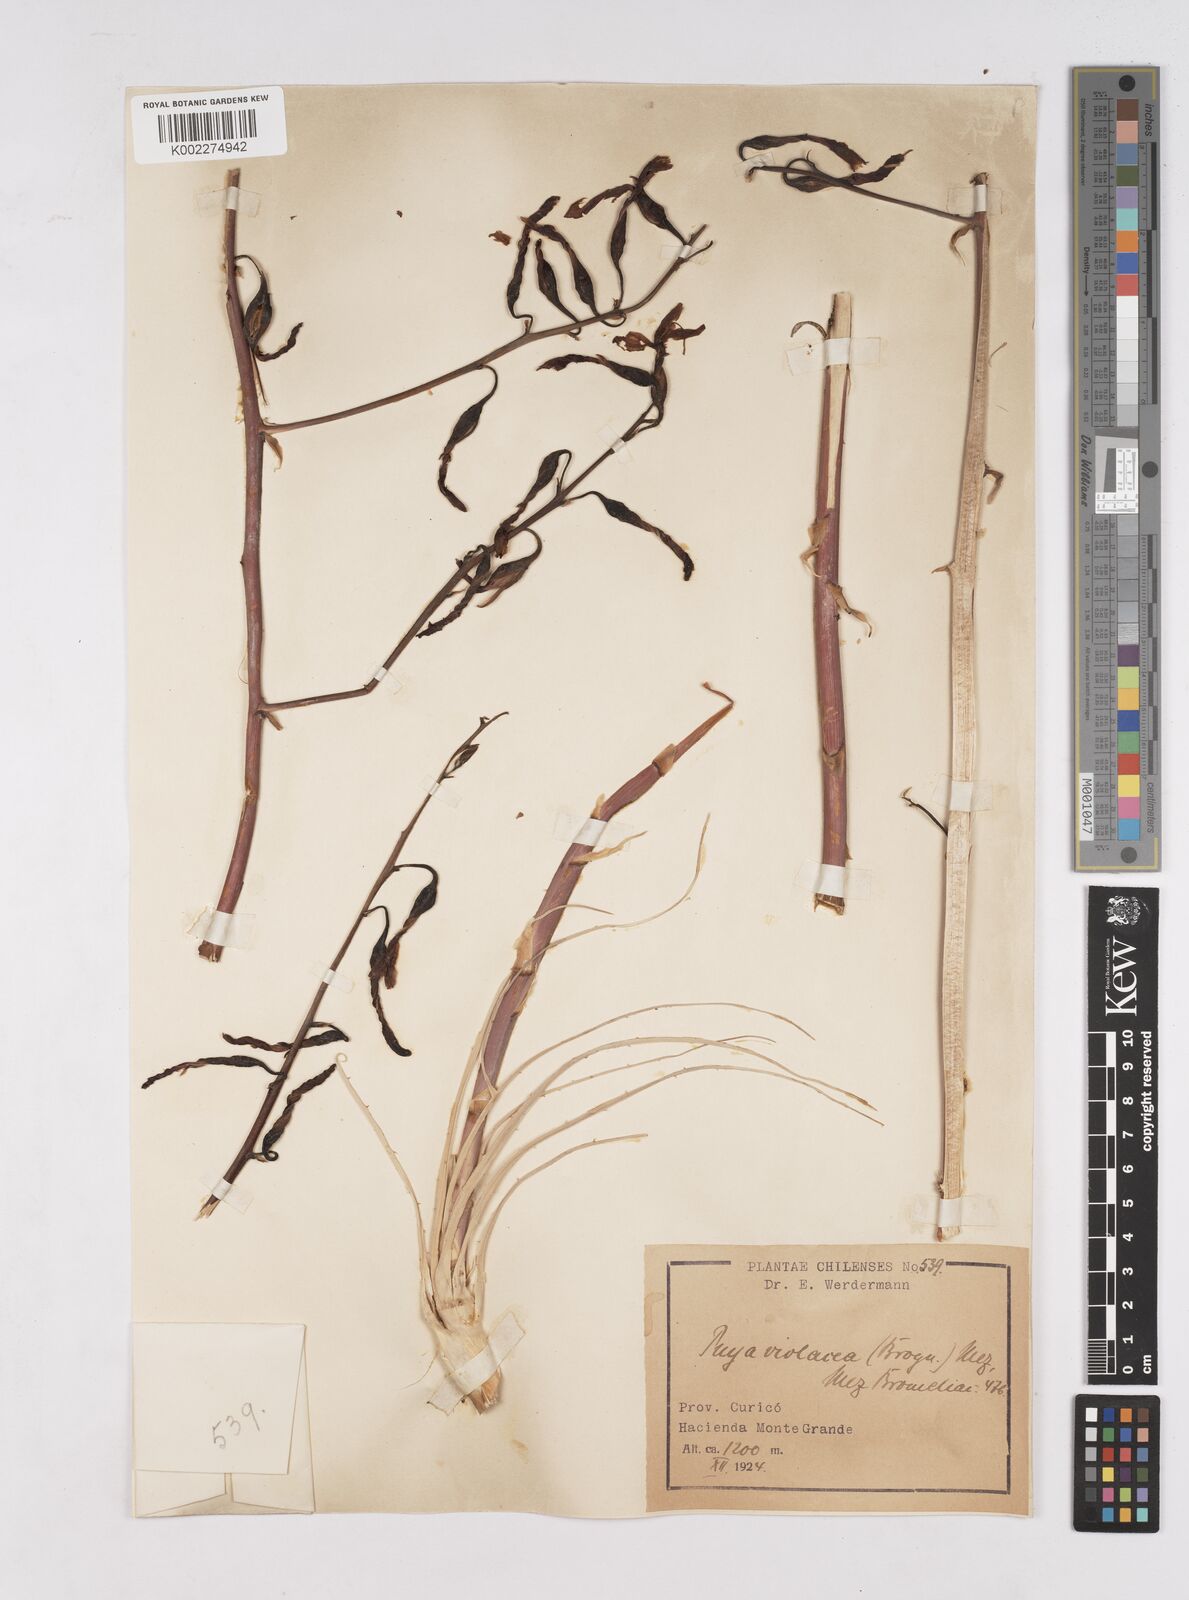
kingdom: Plantae
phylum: Tracheophyta
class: Liliopsida
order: Poales
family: Bromeliaceae
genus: Puya
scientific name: Puya coerulea
